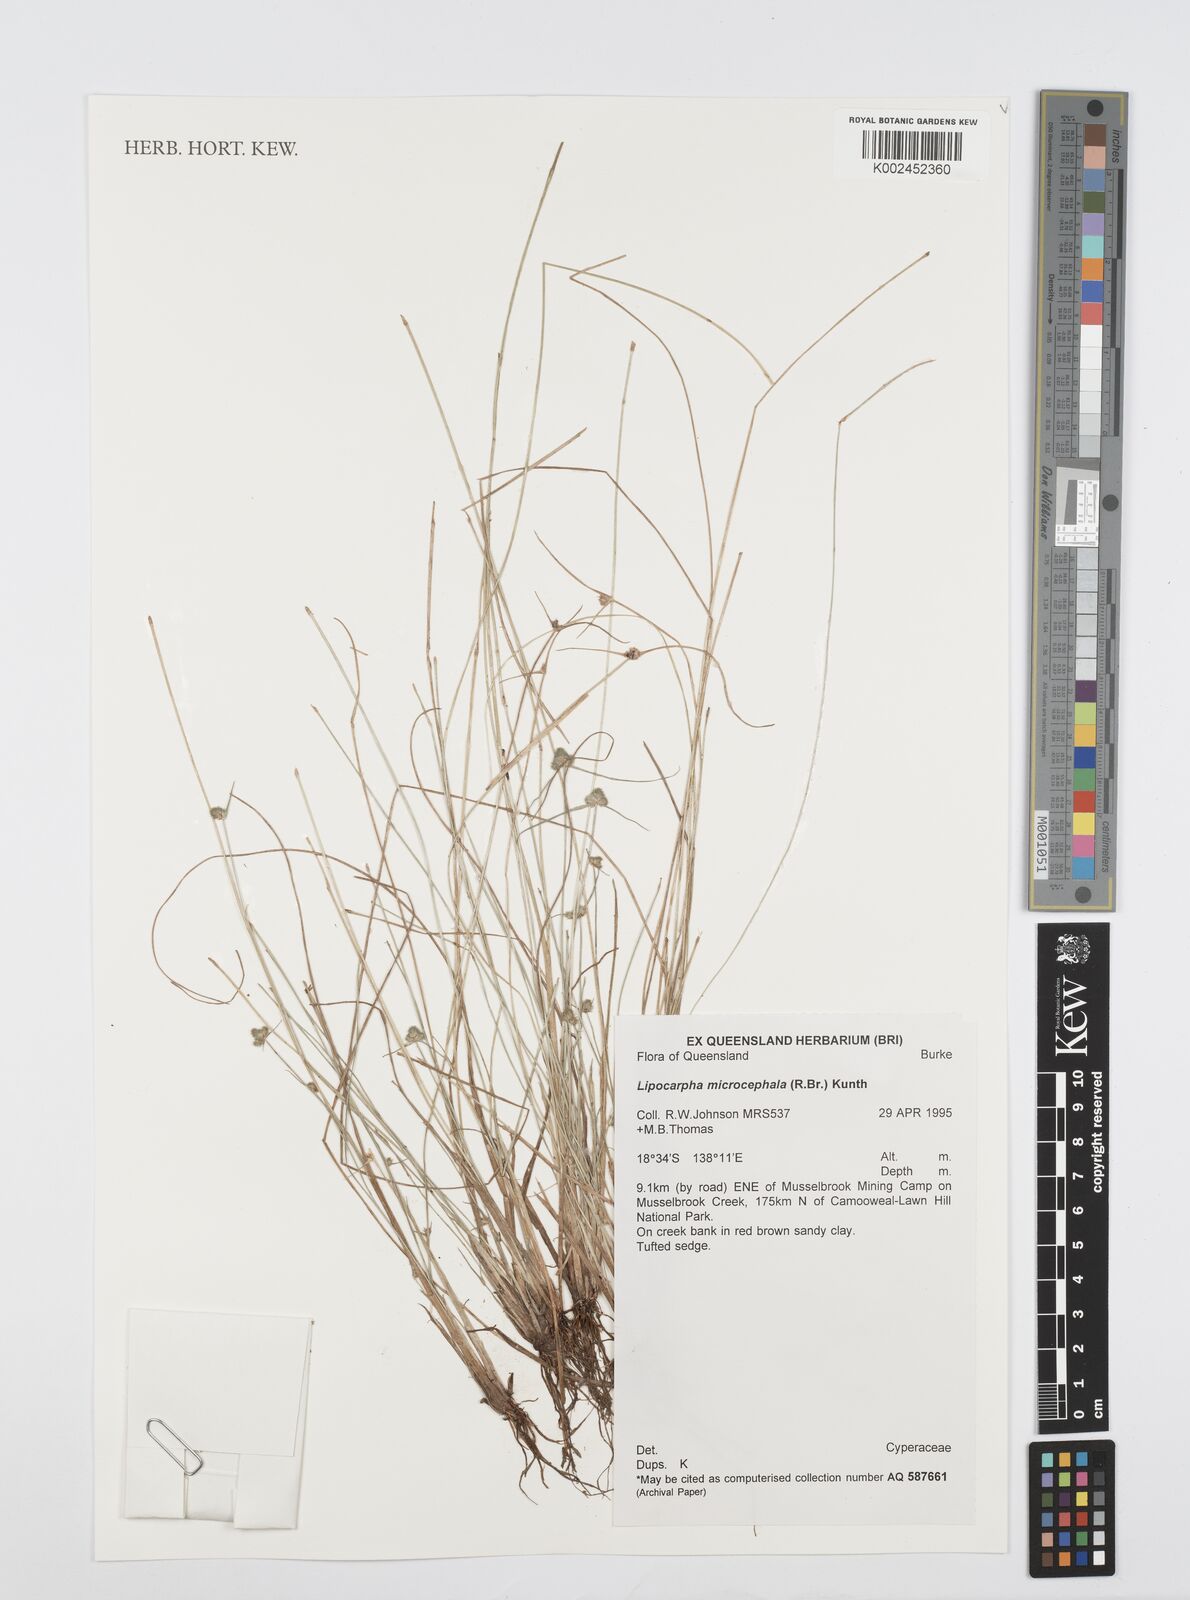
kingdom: Plantae
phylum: Tracheophyta
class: Liliopsida
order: Poales
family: Cyperaceae
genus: Cyperus
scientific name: Cyperus microcephalus
